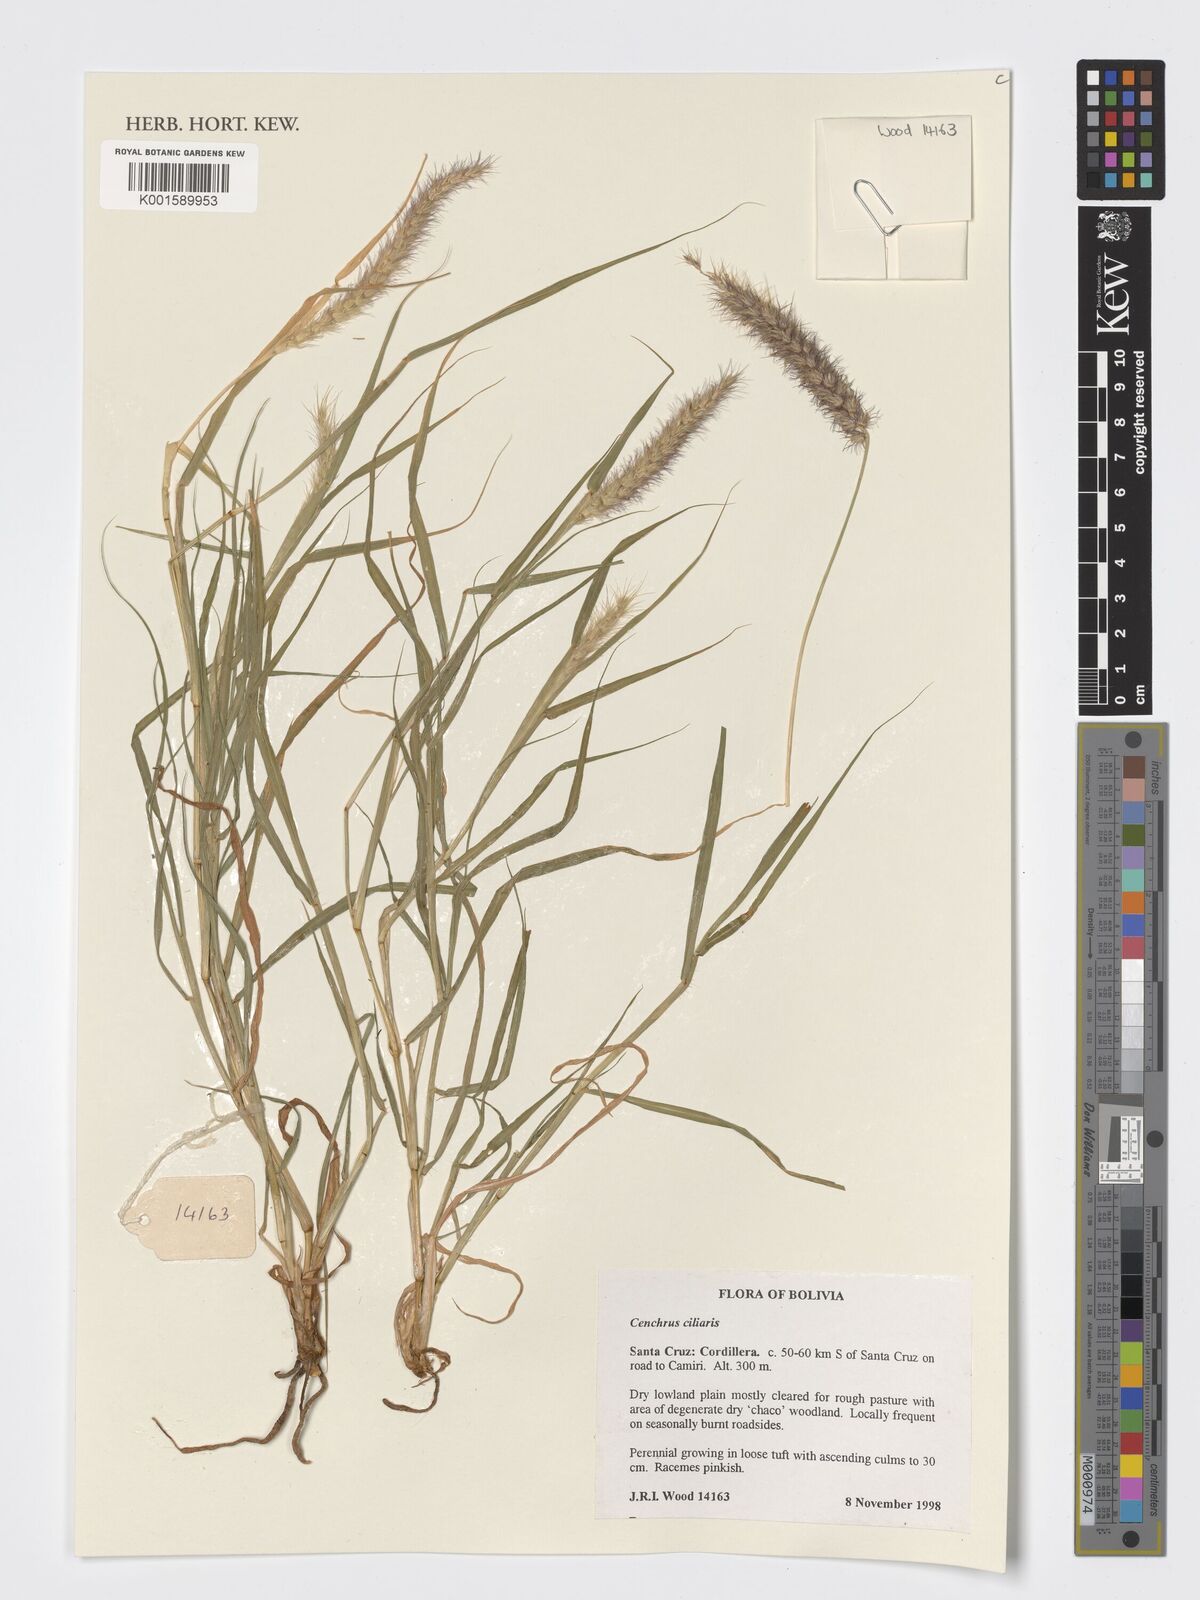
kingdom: Plantae
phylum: Tracheophyta
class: Liliopsida
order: Poales
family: Poaceae
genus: Cenchrus
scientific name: Cenchrus ciliaris
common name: Buffelgrass
